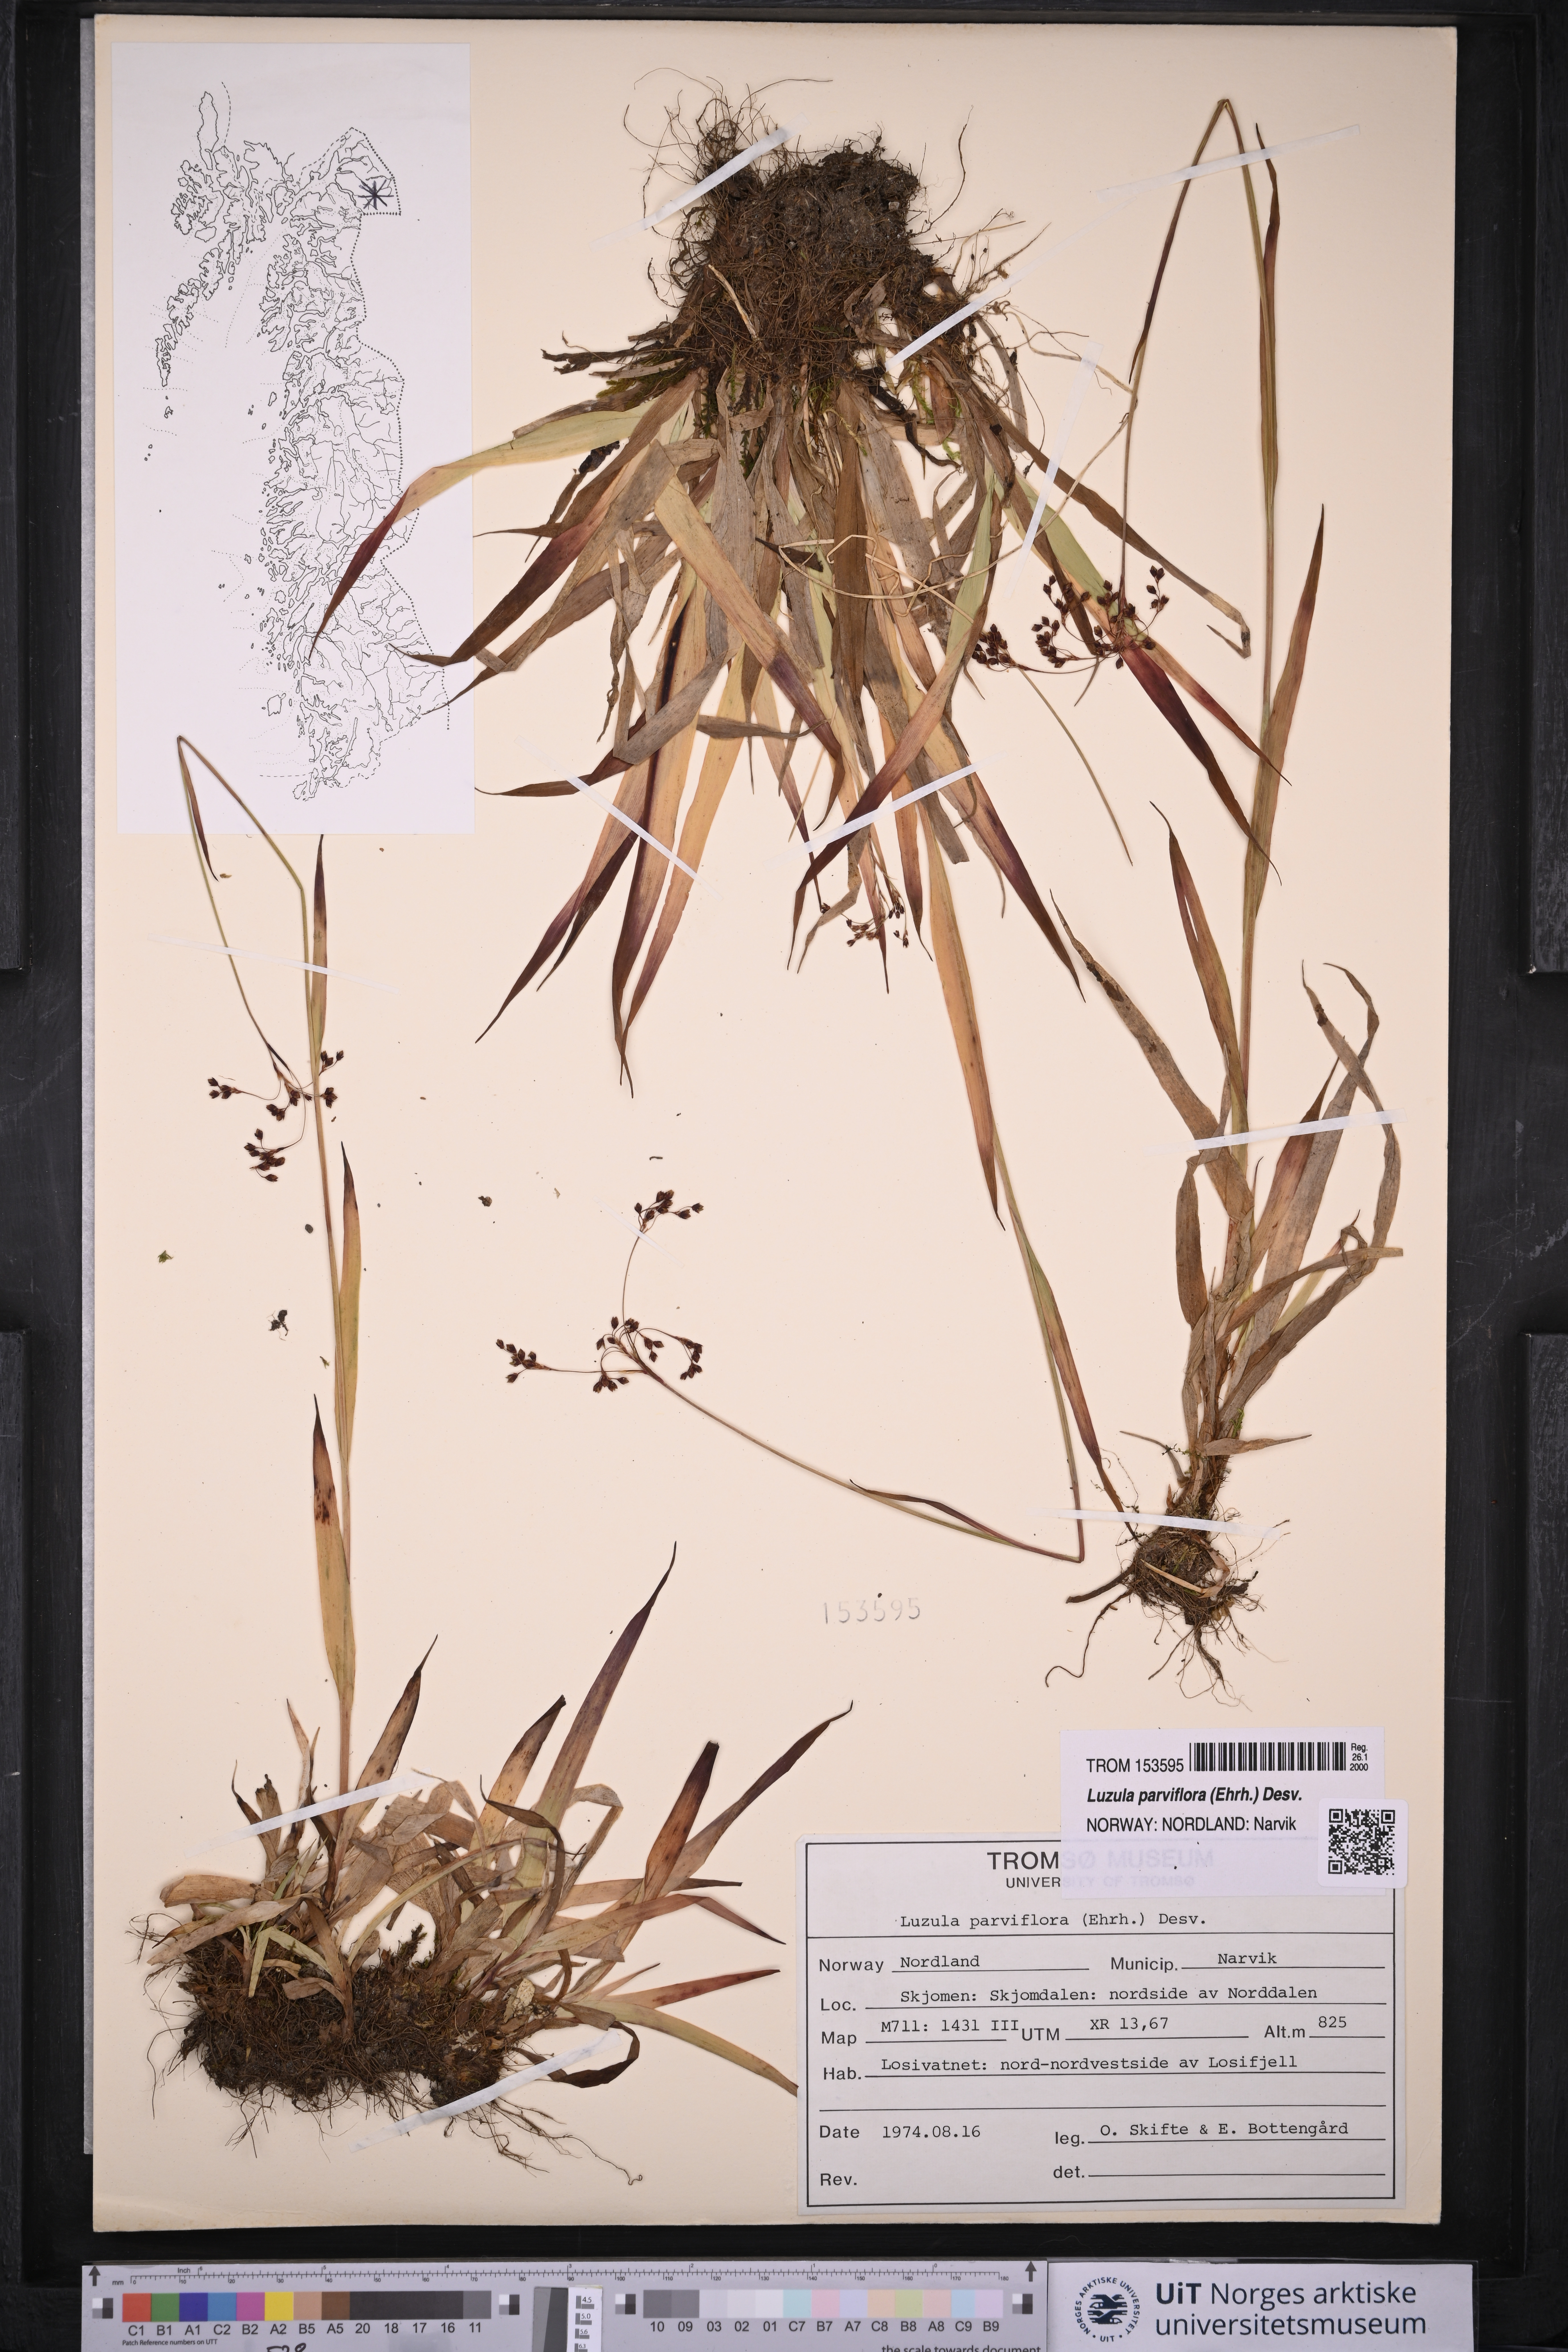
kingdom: Plantae
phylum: Tracheophyta
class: Liliopsida
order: Poales
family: Juncaceae
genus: Luzula
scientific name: Luzula parviflora
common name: Millet woodrush
